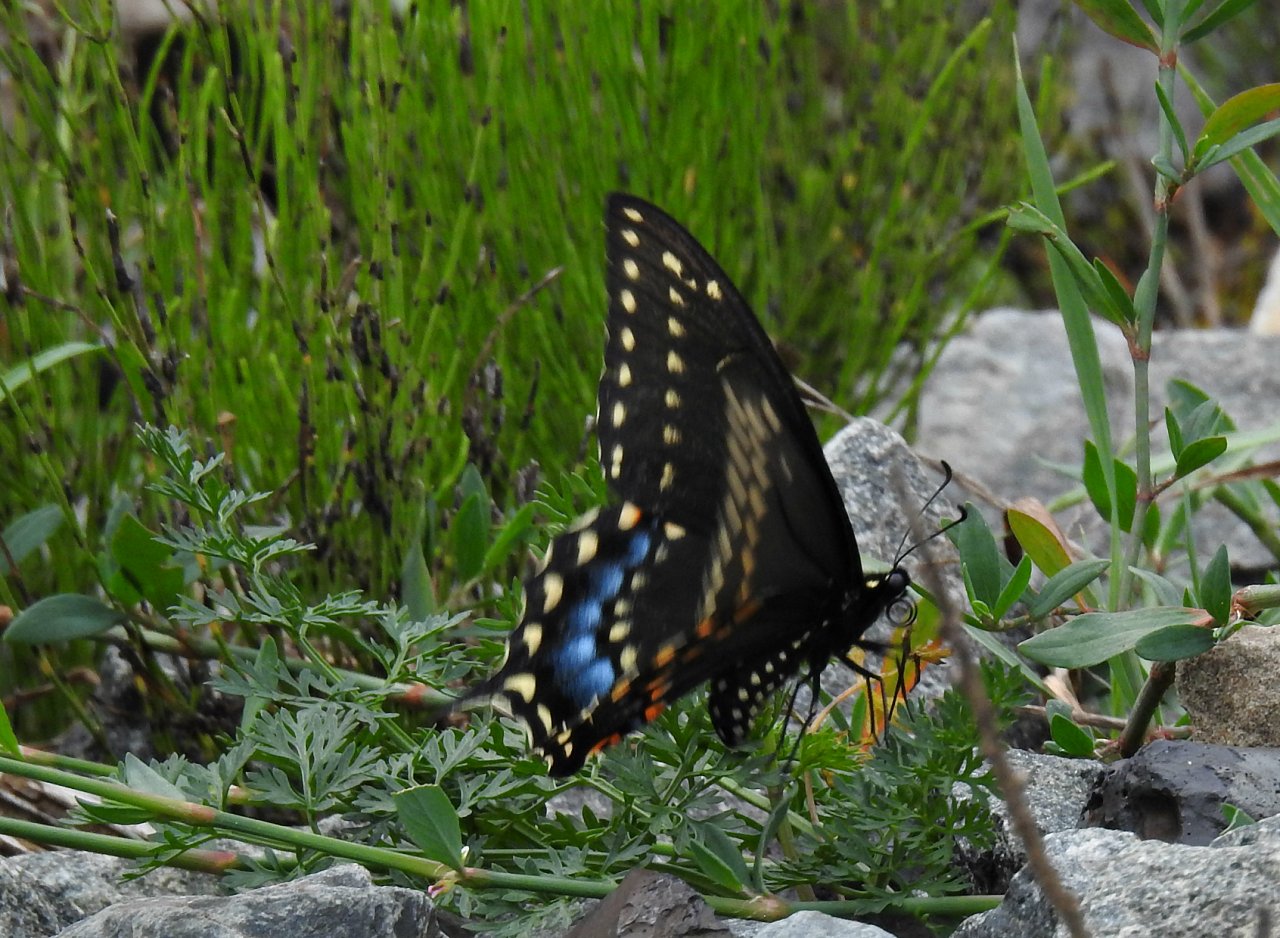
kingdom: Animalia
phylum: Arthropoda
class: Insecta
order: Lepidoptera
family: Papilionidae
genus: Papilio
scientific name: Papilio polyxenes
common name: Black Swallowtail
